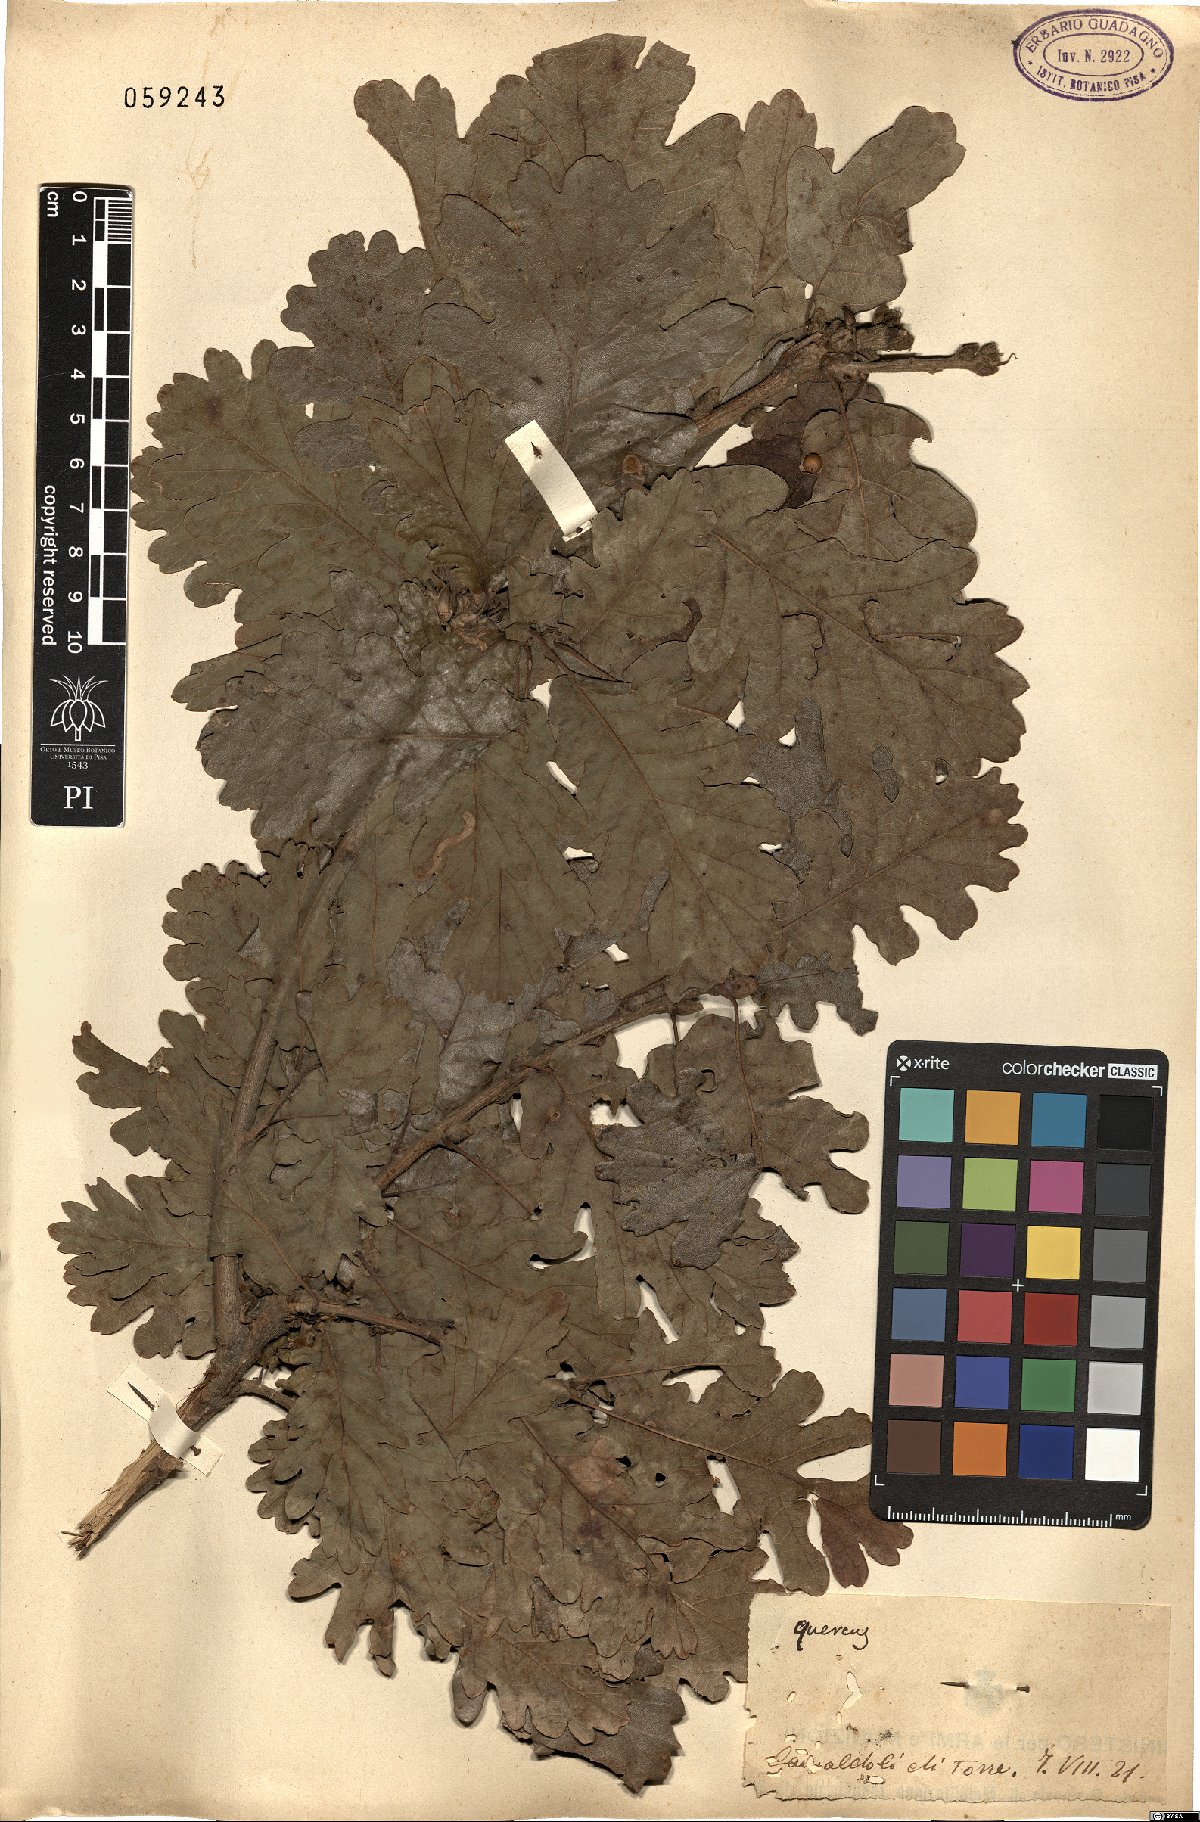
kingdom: Plantae
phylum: Tracheophyta
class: Magnoliopsida
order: Fagales
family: Fagaceae
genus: Quercus
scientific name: Quercus
